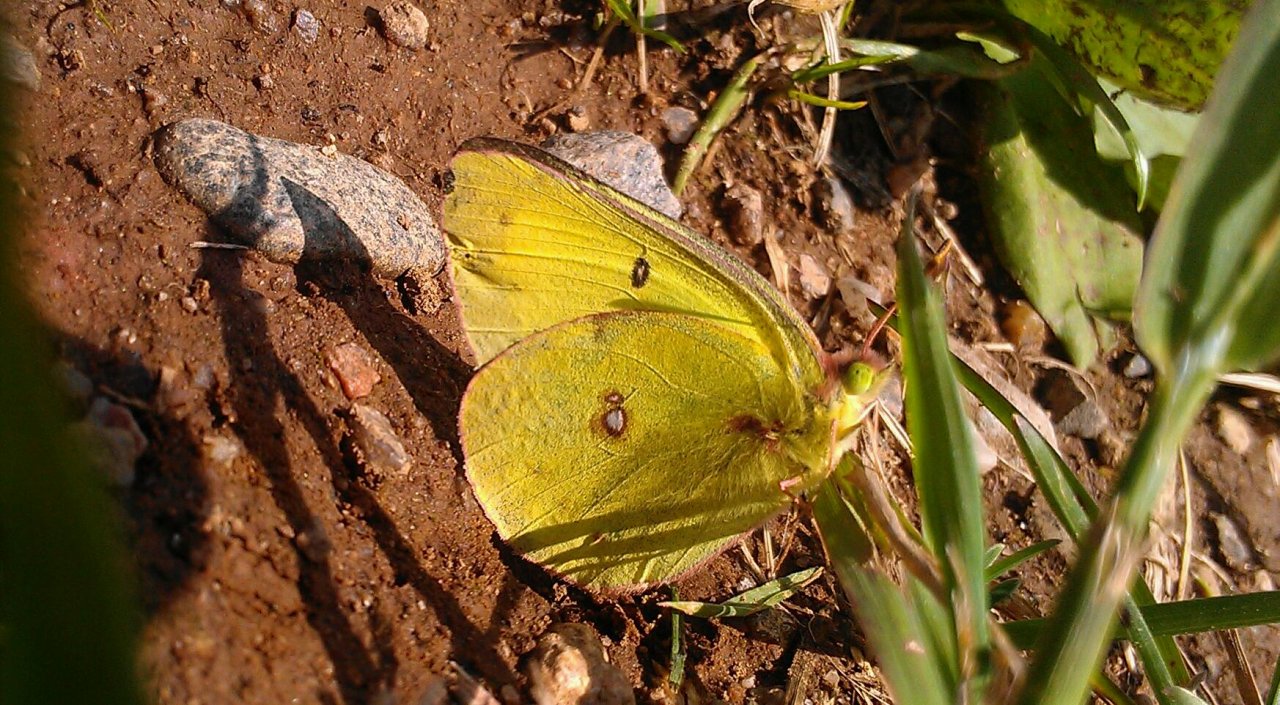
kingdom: Animalia
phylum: Arthropoda
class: Insecta
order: Lepidoptera
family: Pieridae
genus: Colias
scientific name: Colias philodice
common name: Clouded Sulphur
